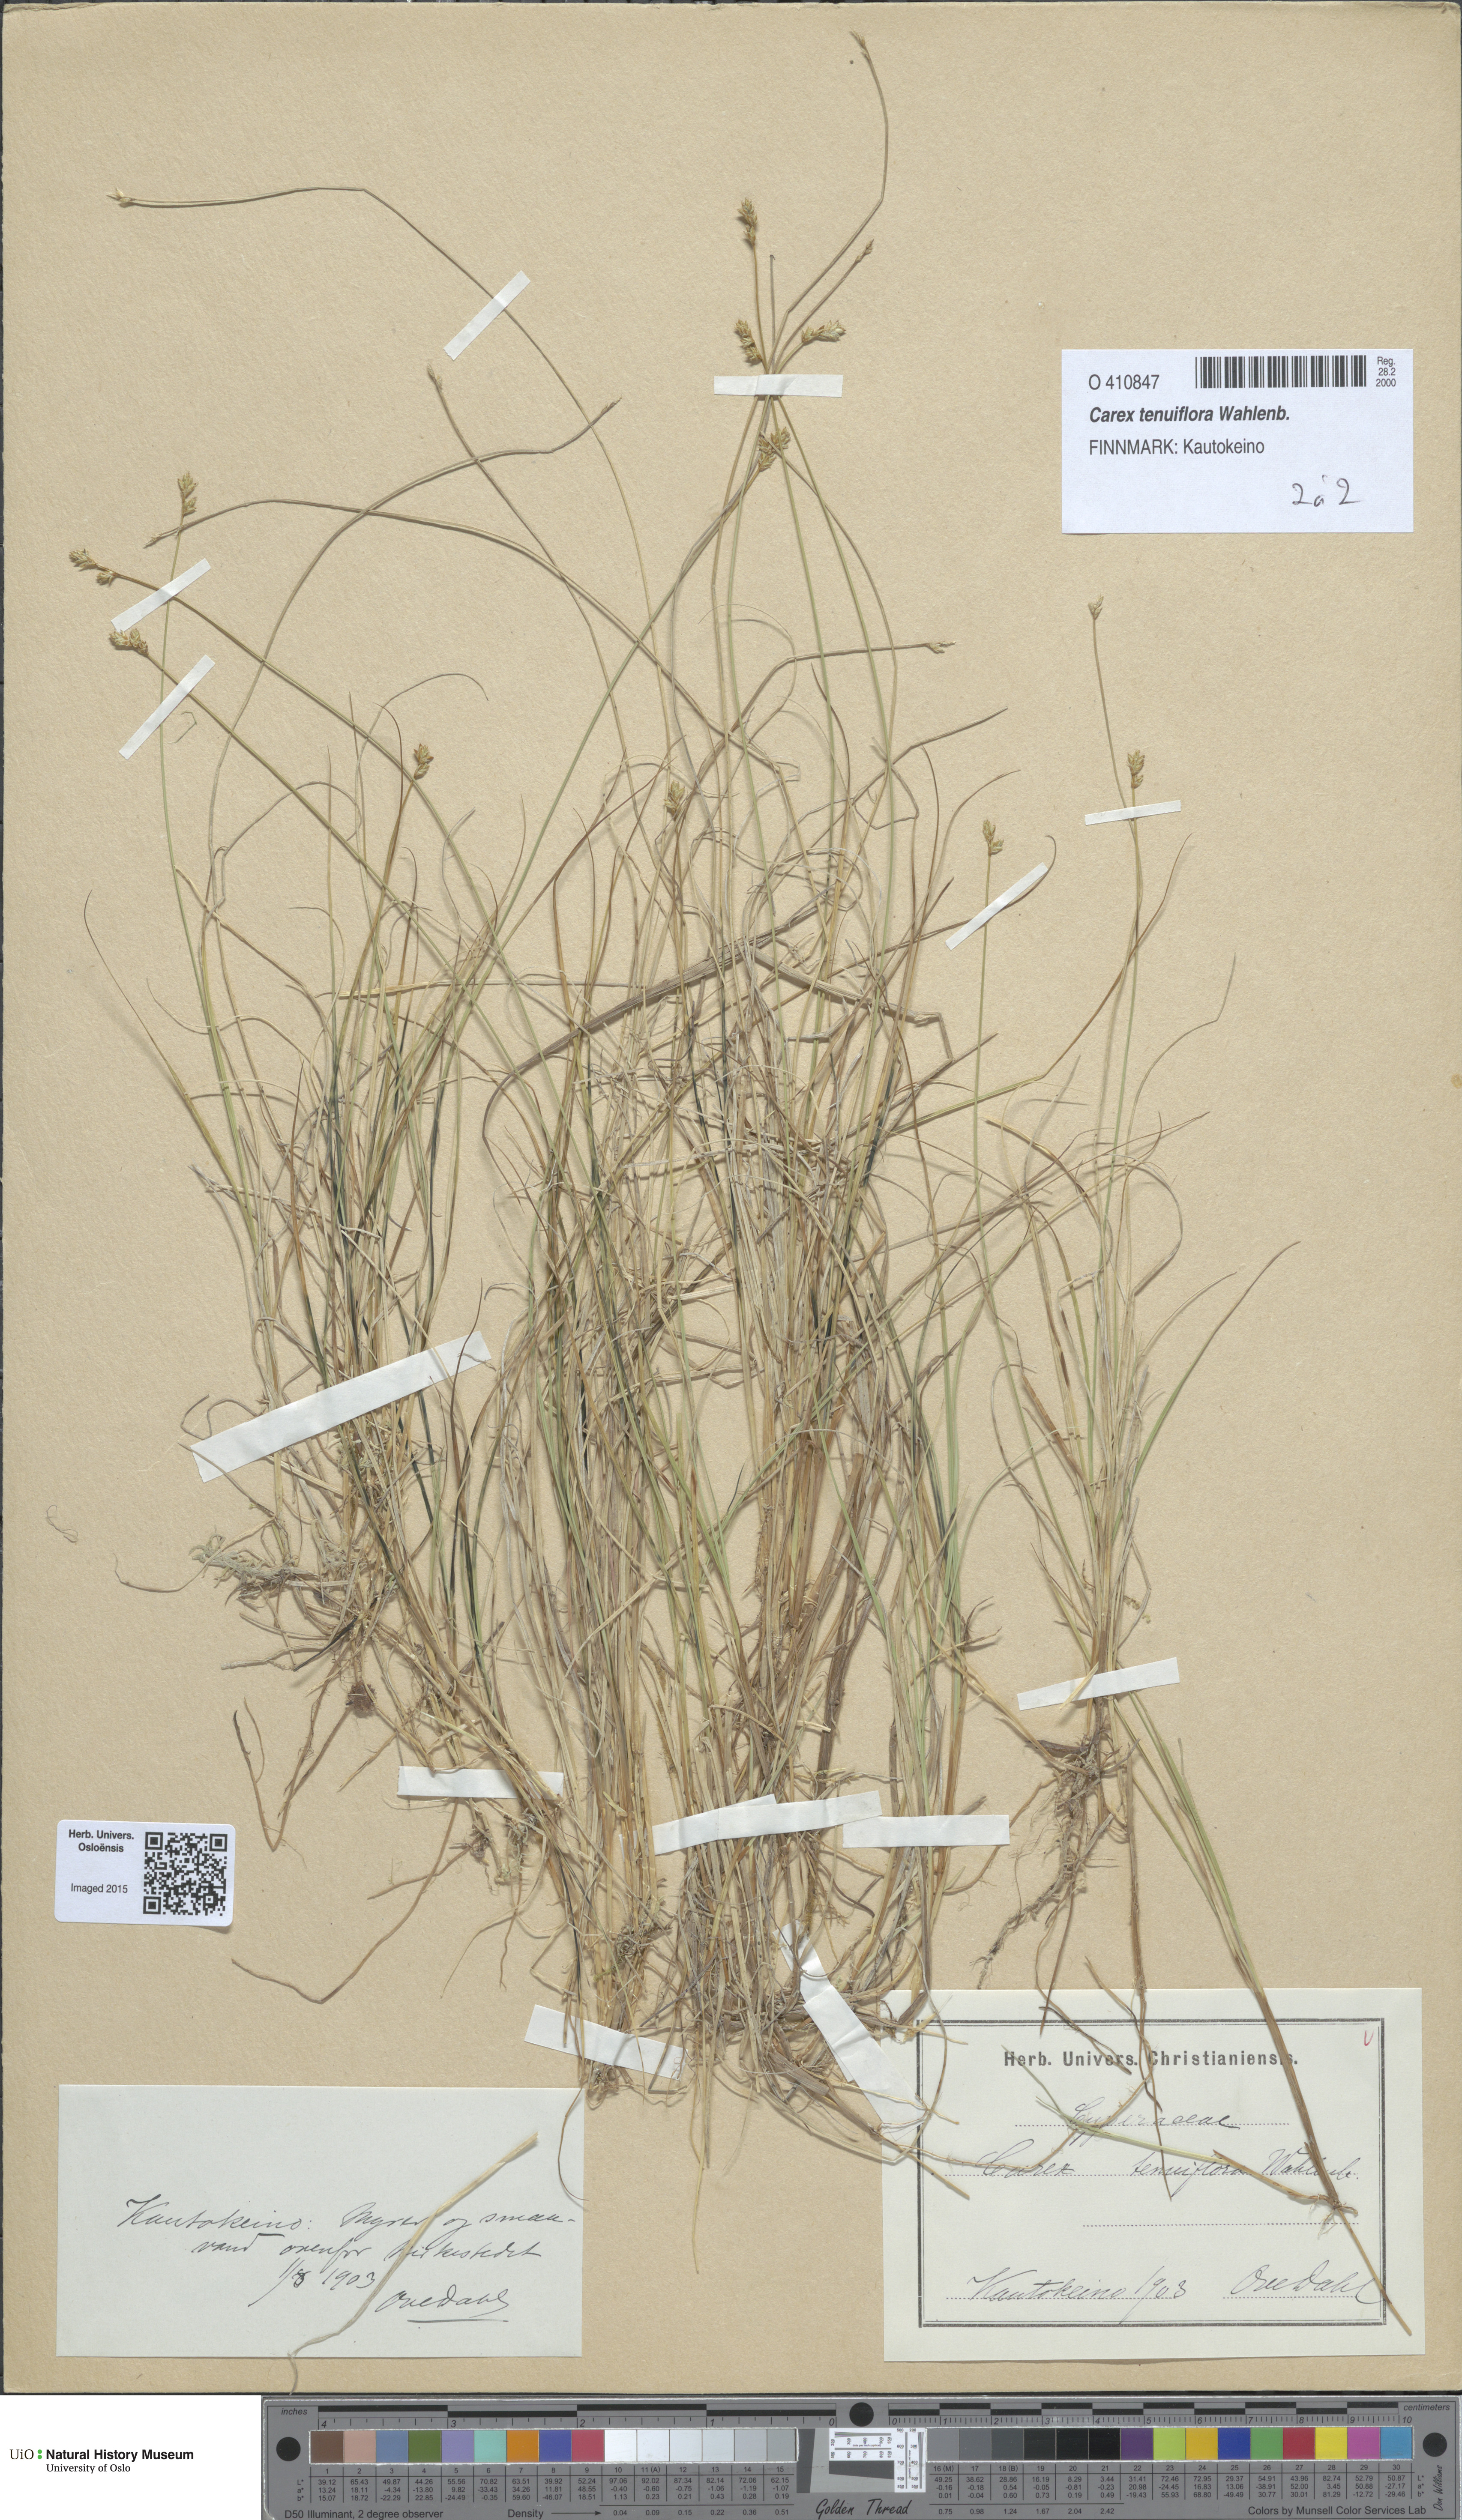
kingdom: Plantae
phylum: Tracheophyta
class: Liliopsida
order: Poales
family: Cyperaceae
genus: Carex
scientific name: Carex tenuiflora
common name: Sparse-flowered sedge
